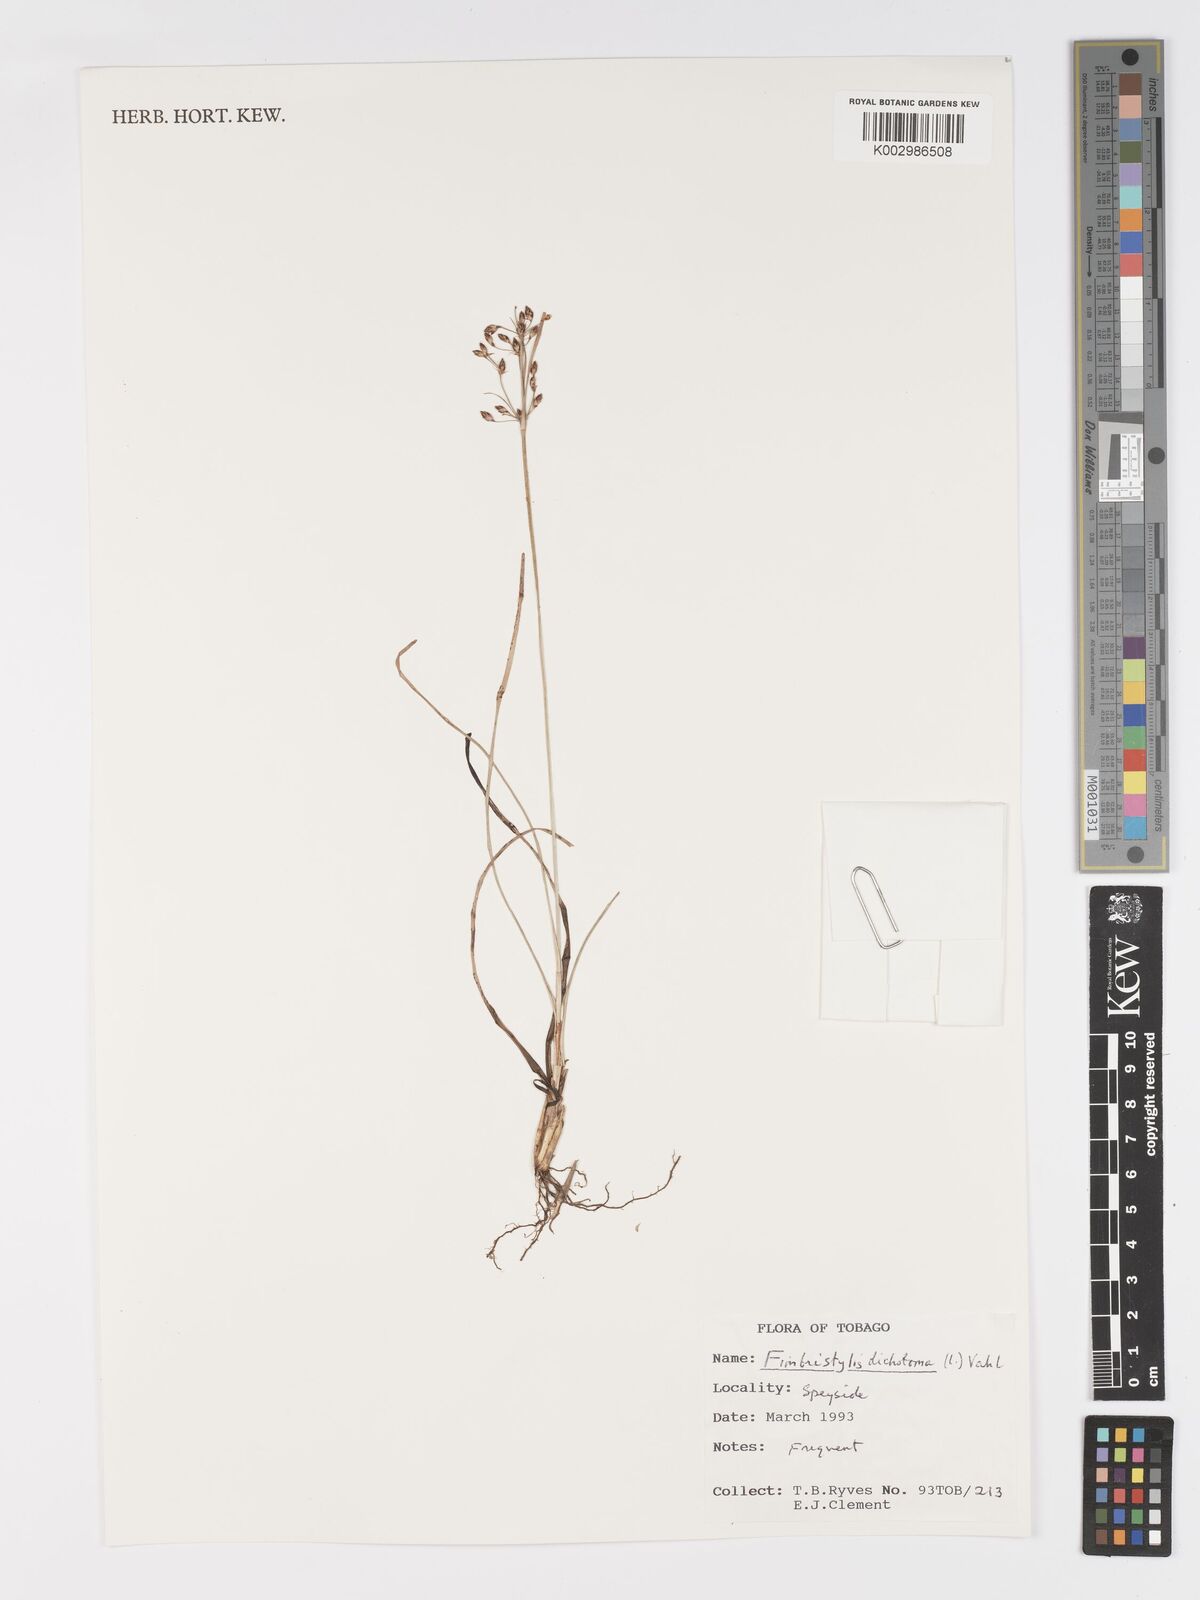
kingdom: Plantae
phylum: Tracheophyta
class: Liliopsida
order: Poales
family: Cyperaceae
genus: Fimbristylis
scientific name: Fimbristylis dichotoma
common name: Forked fimbry
